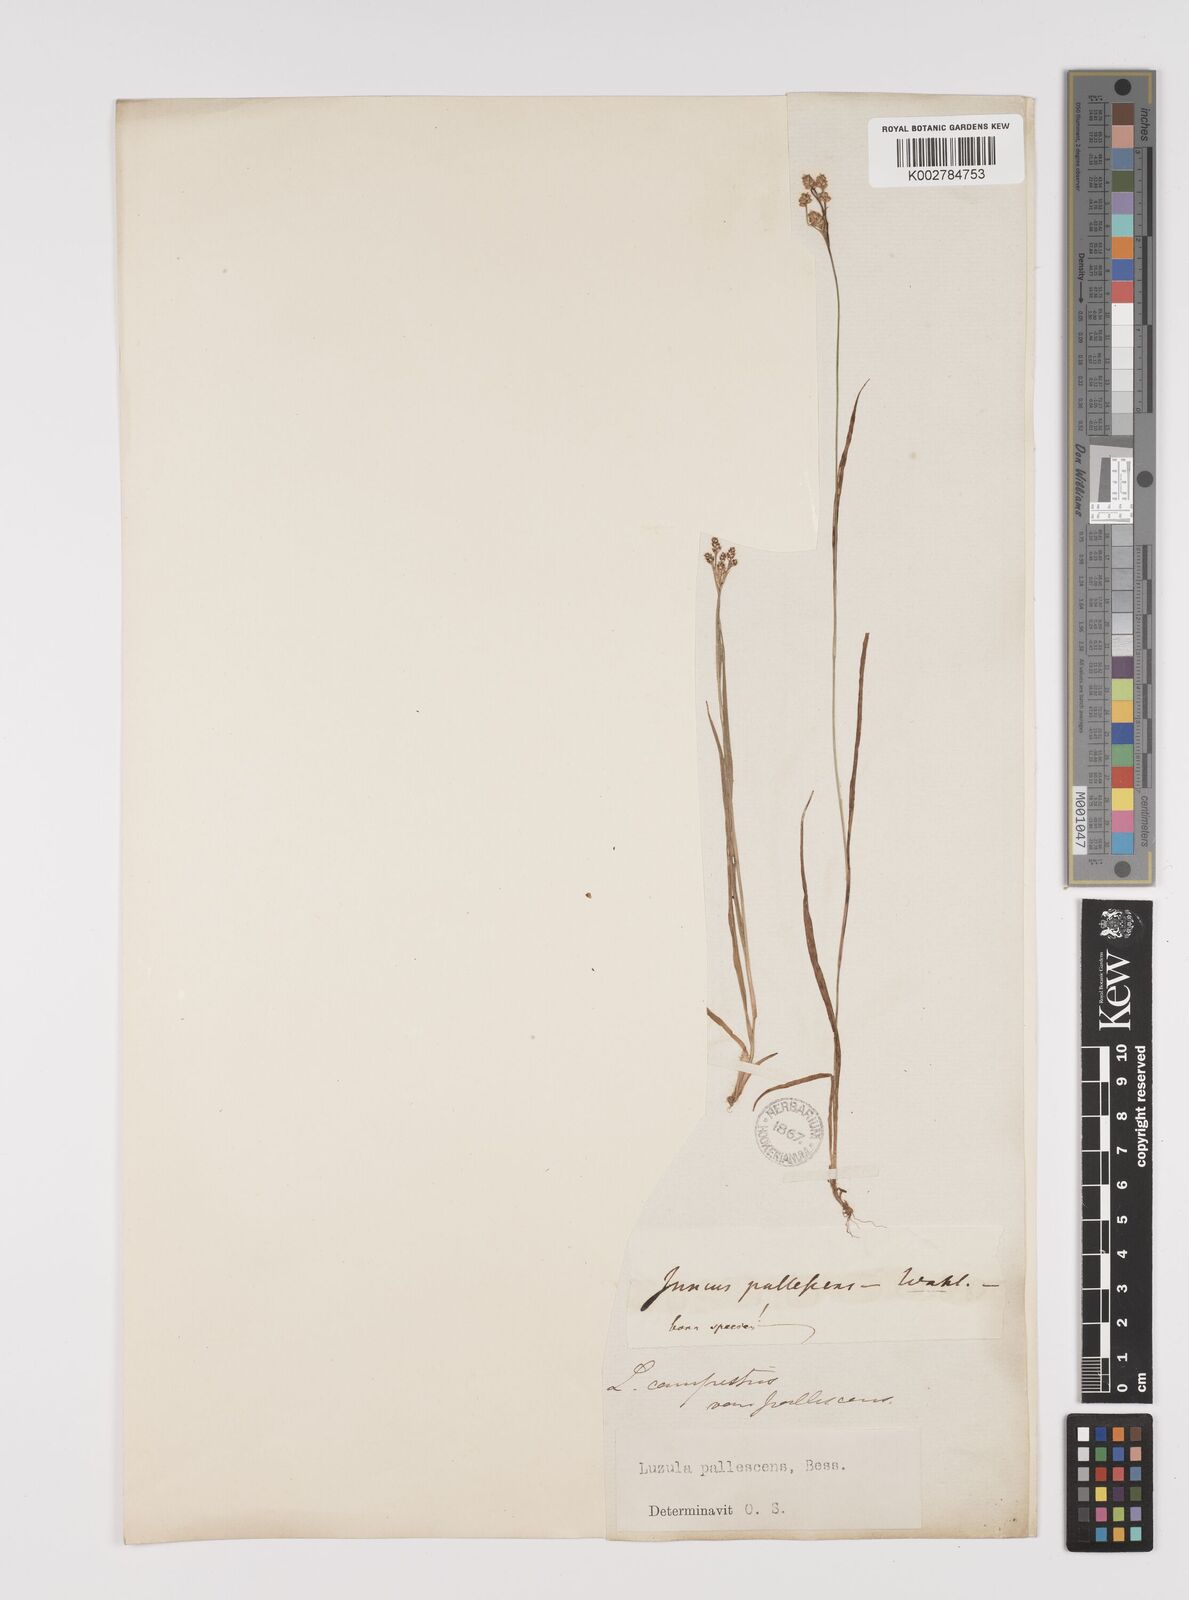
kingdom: Plantae
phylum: Tracheophyta
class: Liliopsida
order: Poales
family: Juncaceae
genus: Luzula
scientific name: Luzula pallescens
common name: Fen wood-rush
